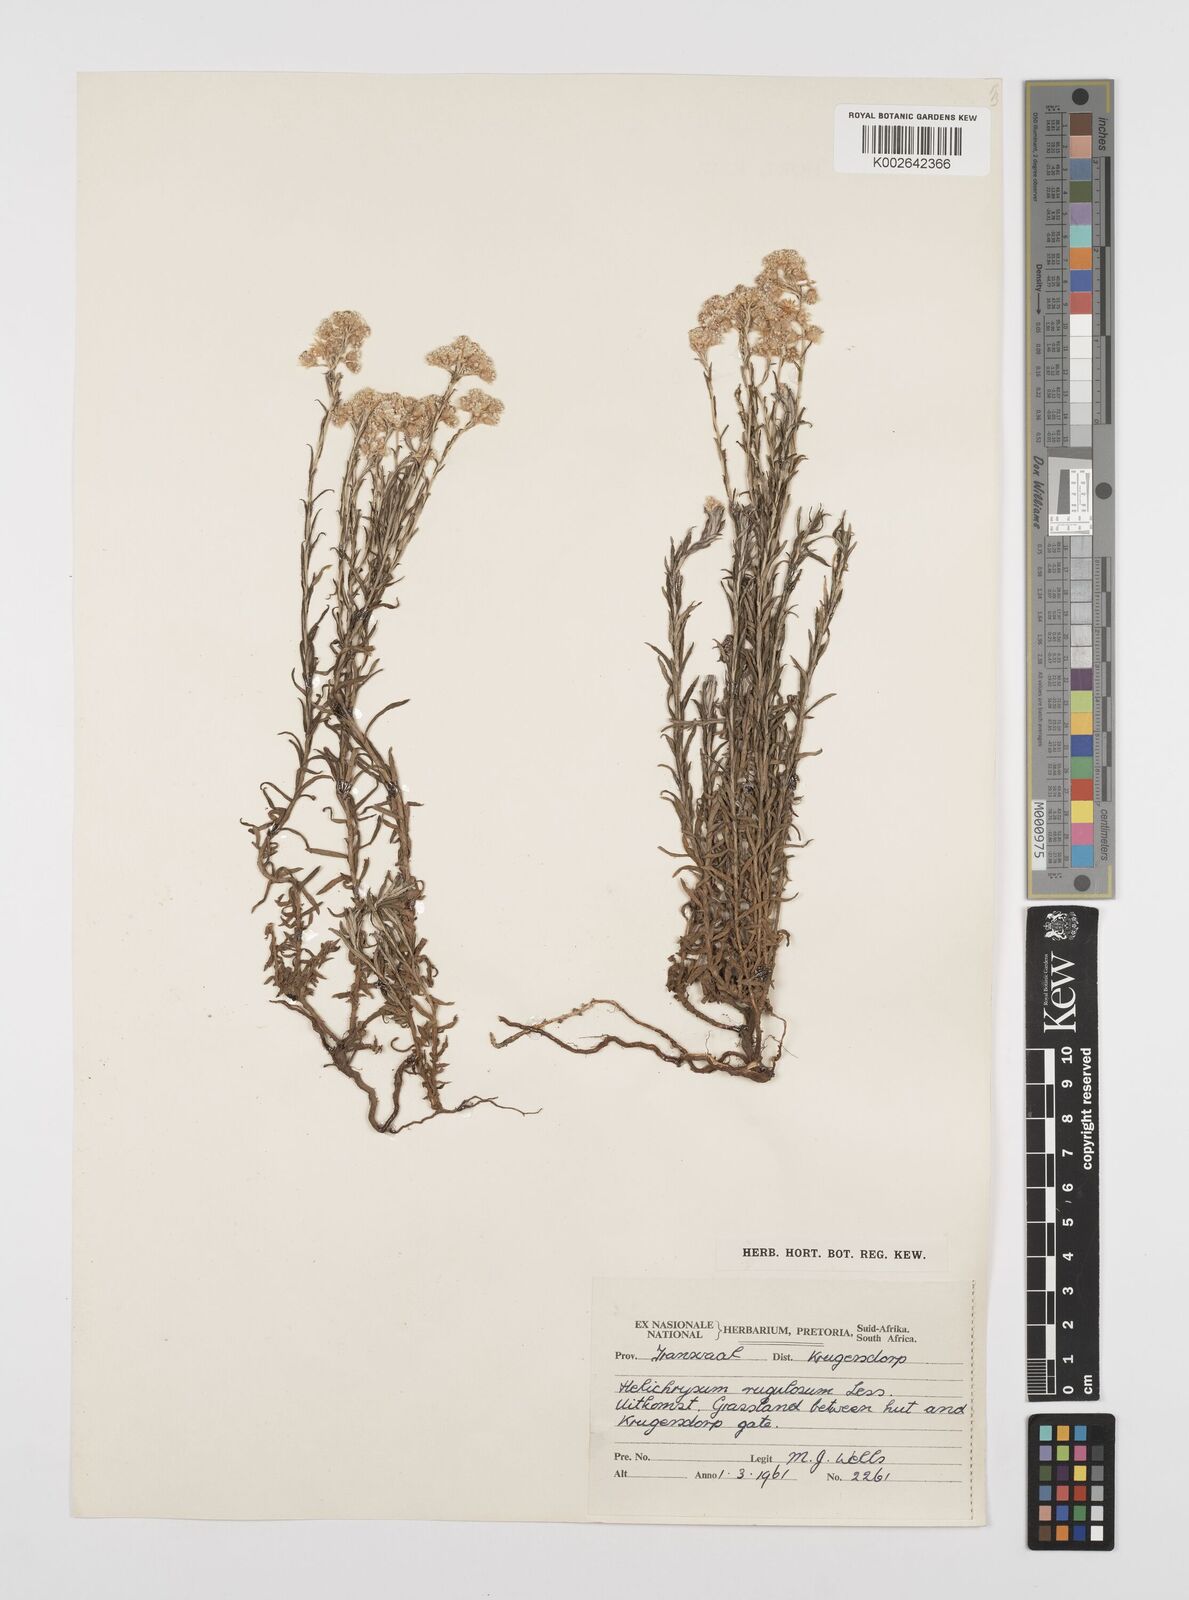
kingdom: Plantae
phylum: Tracheophyta
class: Magnoliopsida
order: Asterales
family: Asteraceae
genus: Helichrysum
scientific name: Helichrysum rugulosum
